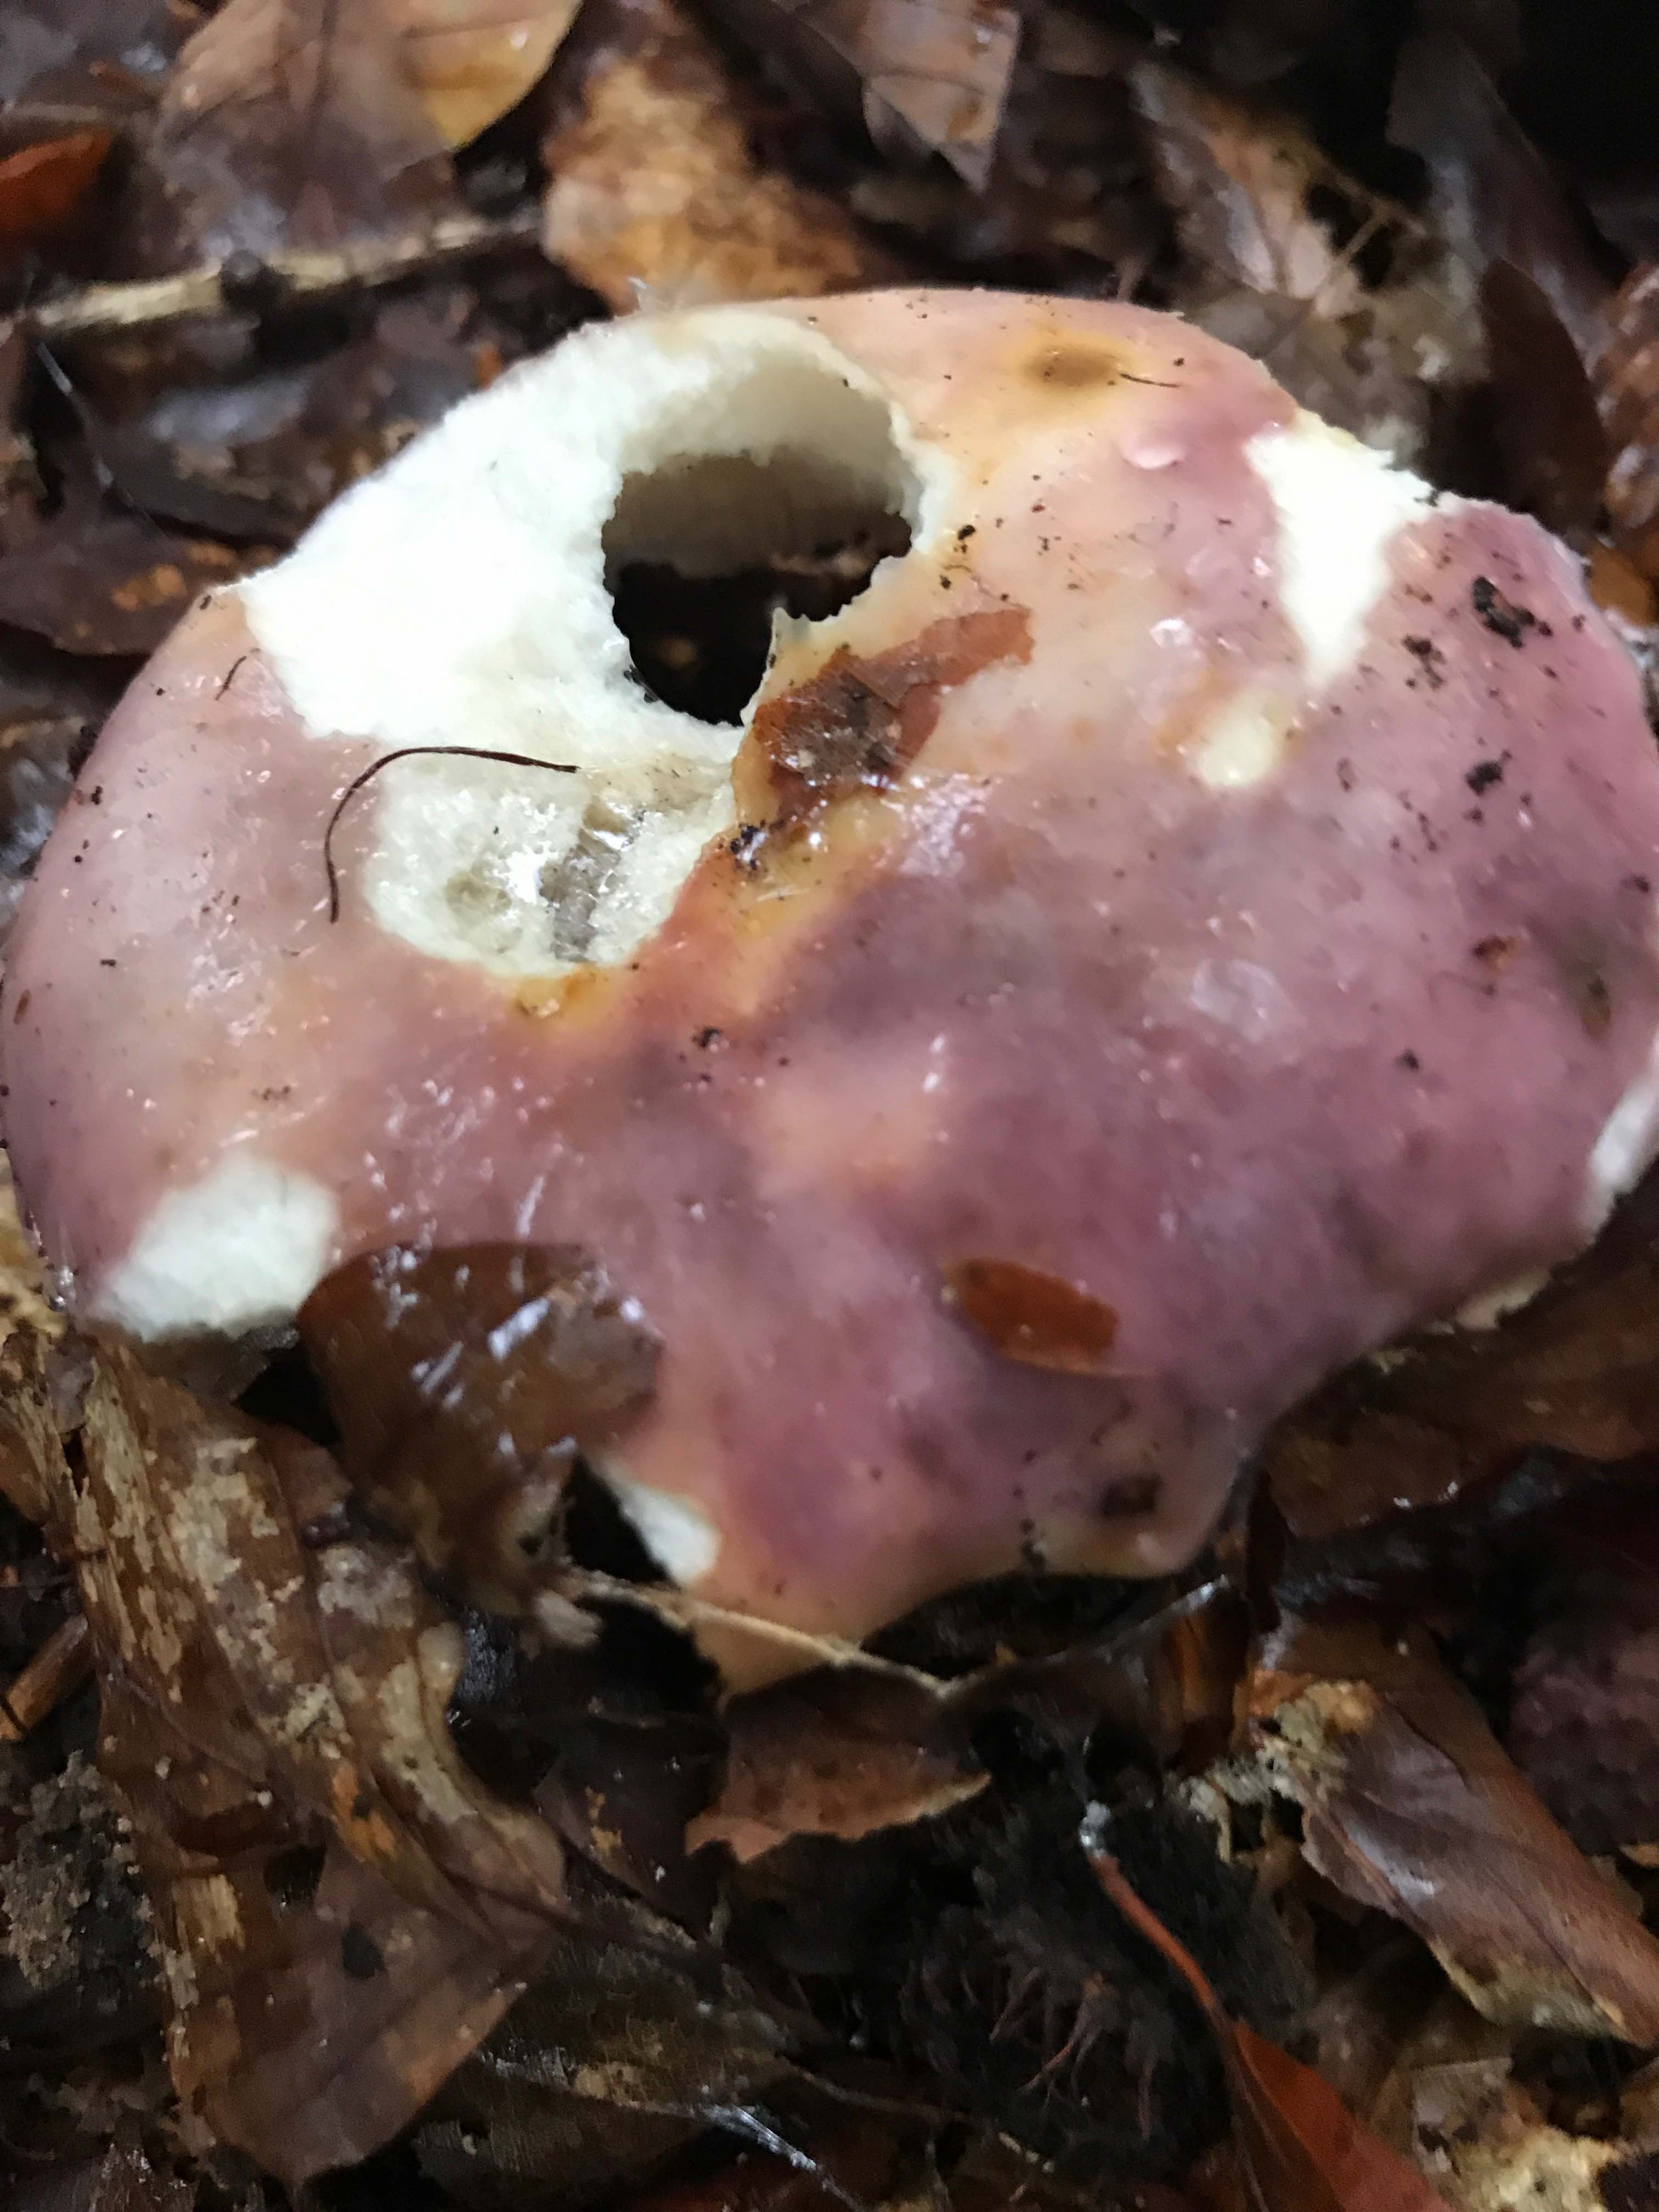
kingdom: Fungi
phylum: Basidiomycota
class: Agaricomycetes
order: Russulales
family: Russulaceae
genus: Russula
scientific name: Russula
